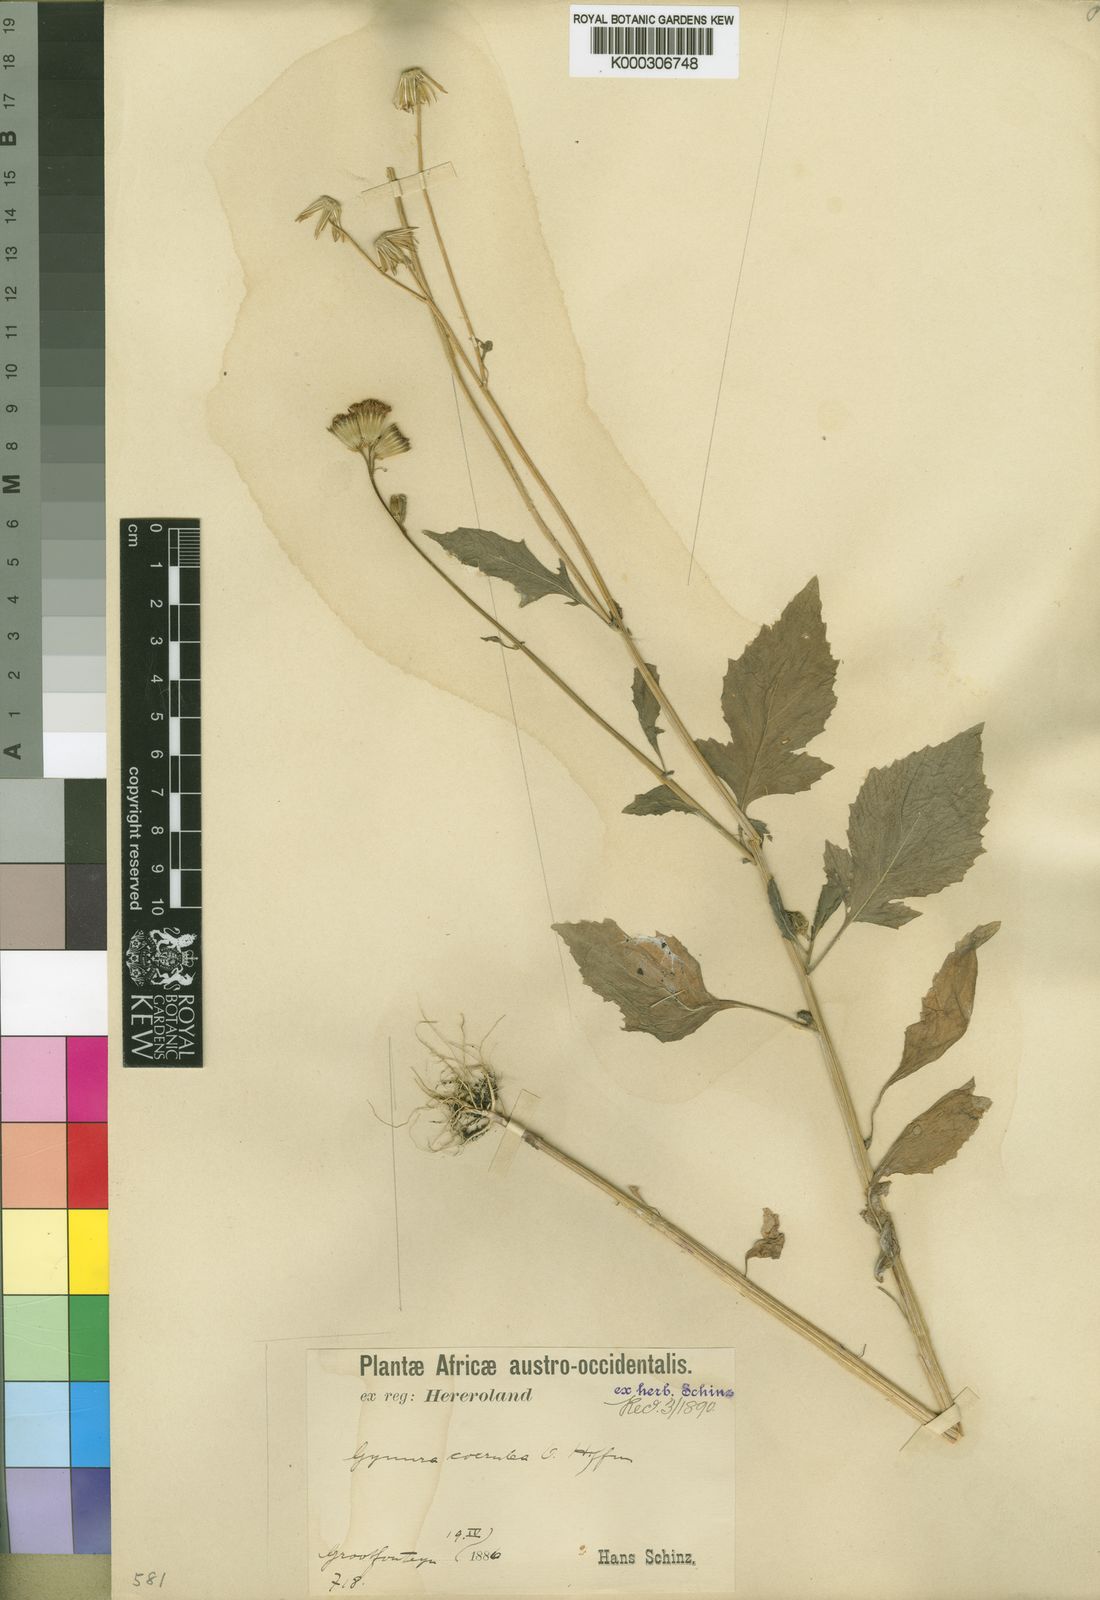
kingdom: Plantae
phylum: Tracheophyta
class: Magnoliopsida
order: Asterales
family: Asteraceae
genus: Crassocephalum
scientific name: Crassocephalum coerulum
